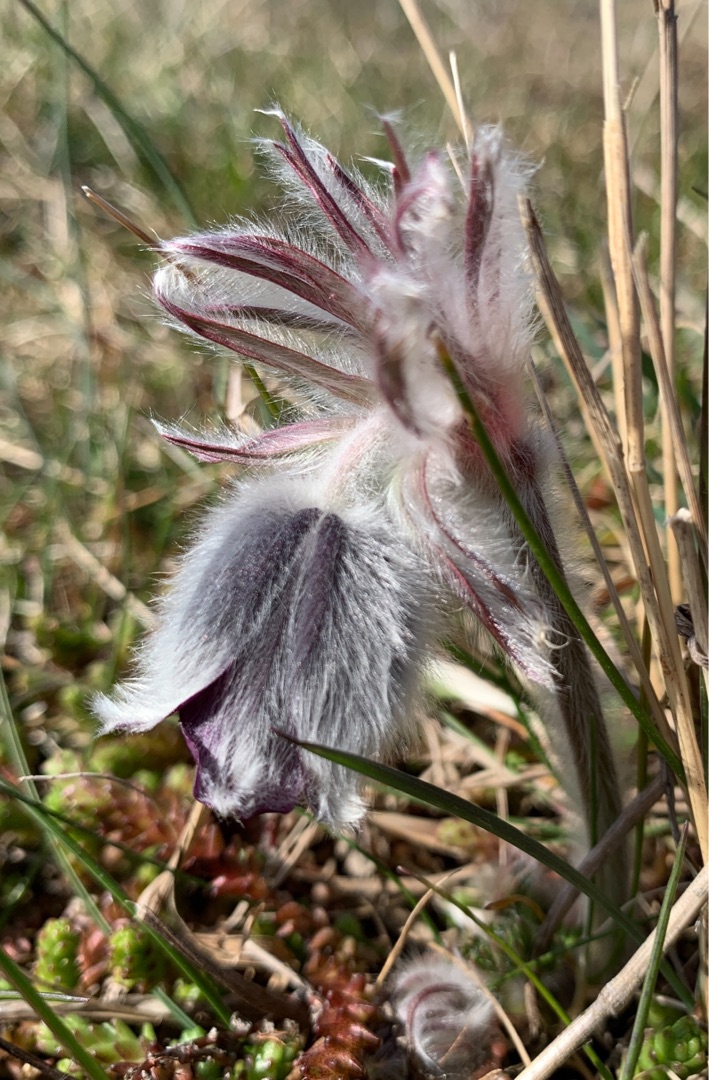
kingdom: Plantae
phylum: Tracheophyta
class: Magnoliopsida
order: Ranunculales
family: Ranunculaceae
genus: Pulsatilla
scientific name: Pulsatilla pratensis
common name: Nikkende kobjælde
